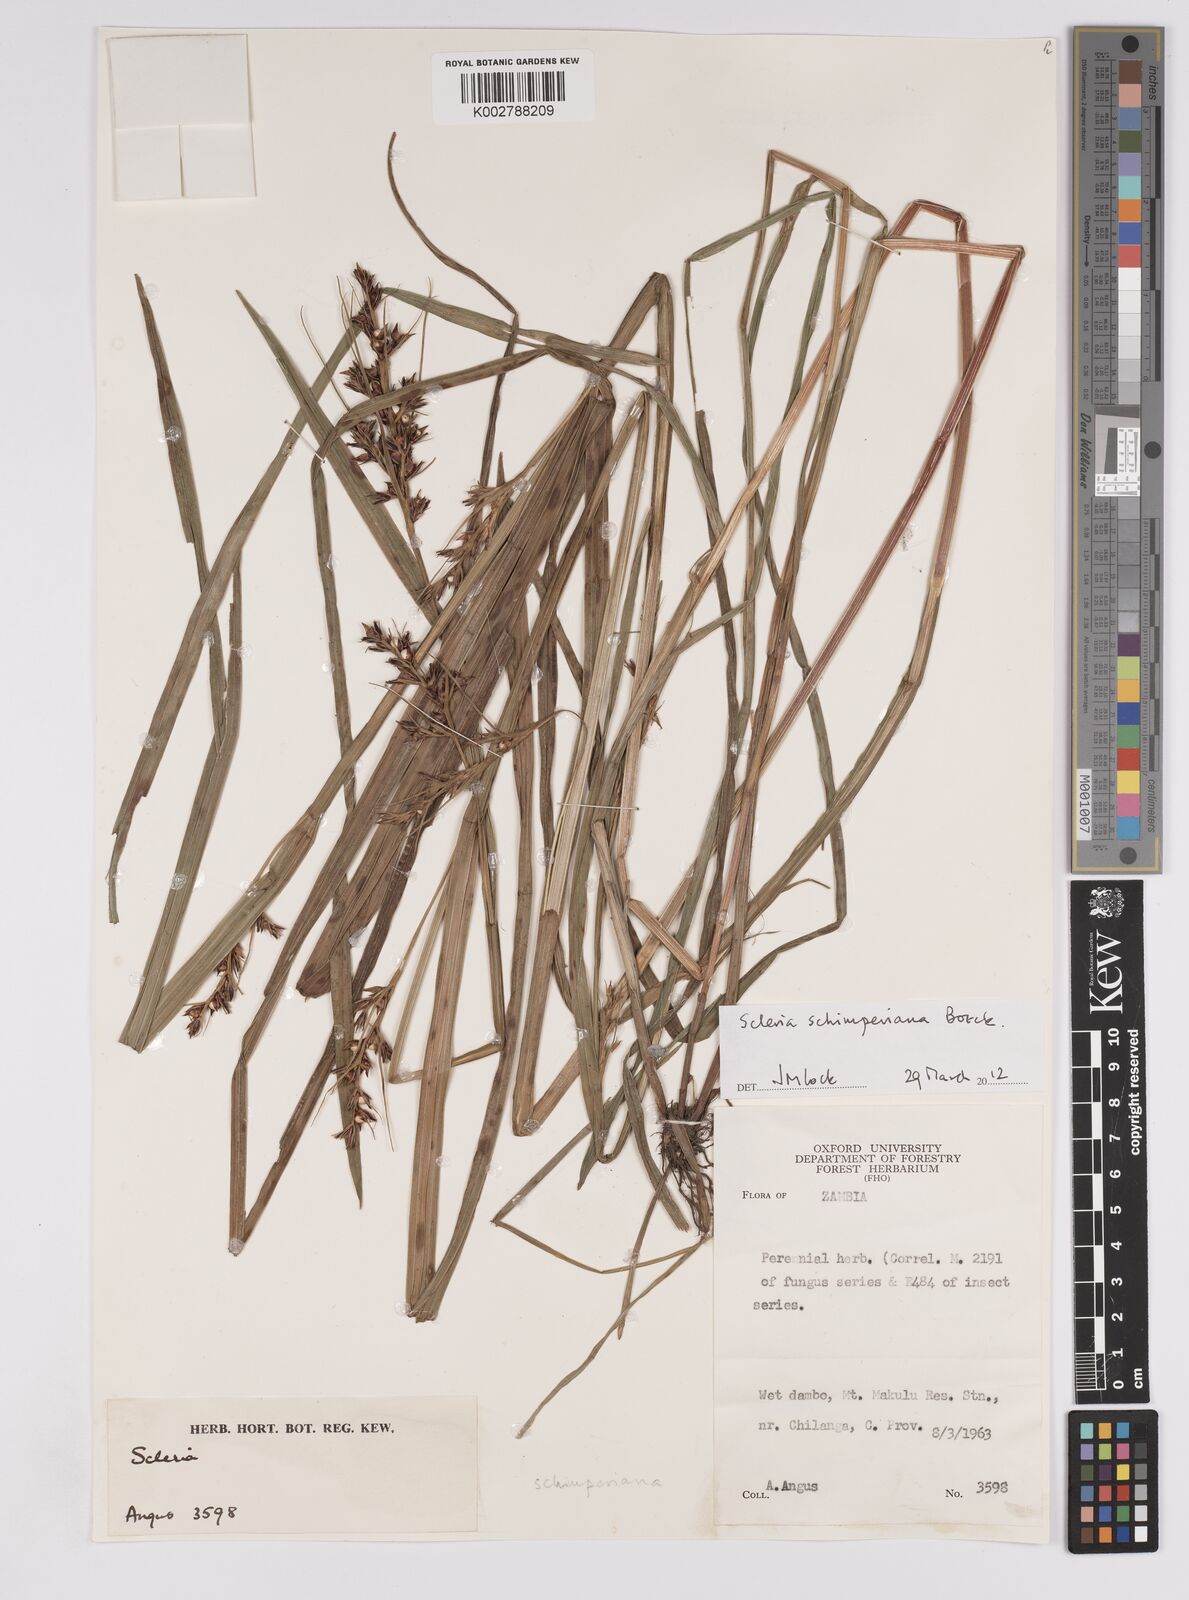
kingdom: Plantae
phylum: Tracheophyta
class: Liliopsida
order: Poales
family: Cyperaceae
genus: Scleria
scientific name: Scleria schimperiana
